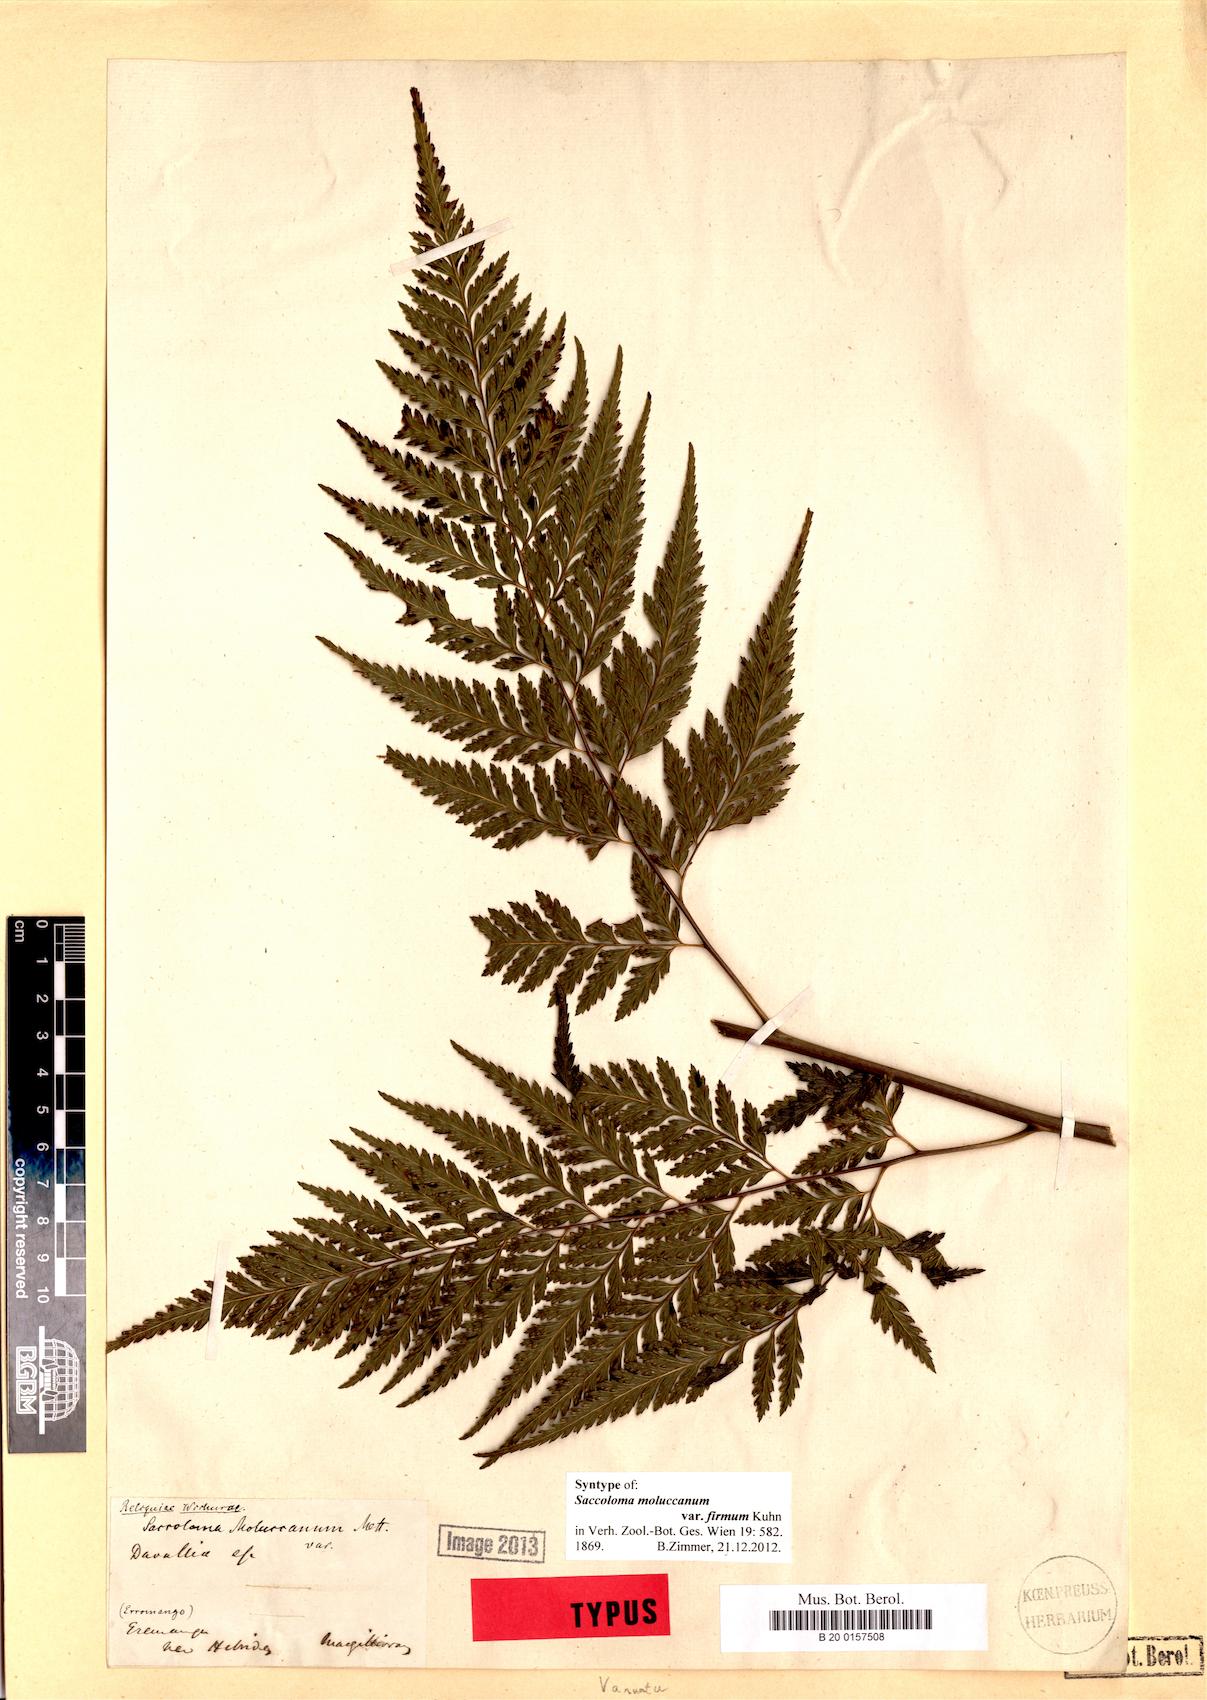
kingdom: Plantae
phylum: Tracheophyta
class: Polypodiopsida
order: Polypodiales
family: Saccolomataceae
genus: Orthiopteris
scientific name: Orthiopteris firma
